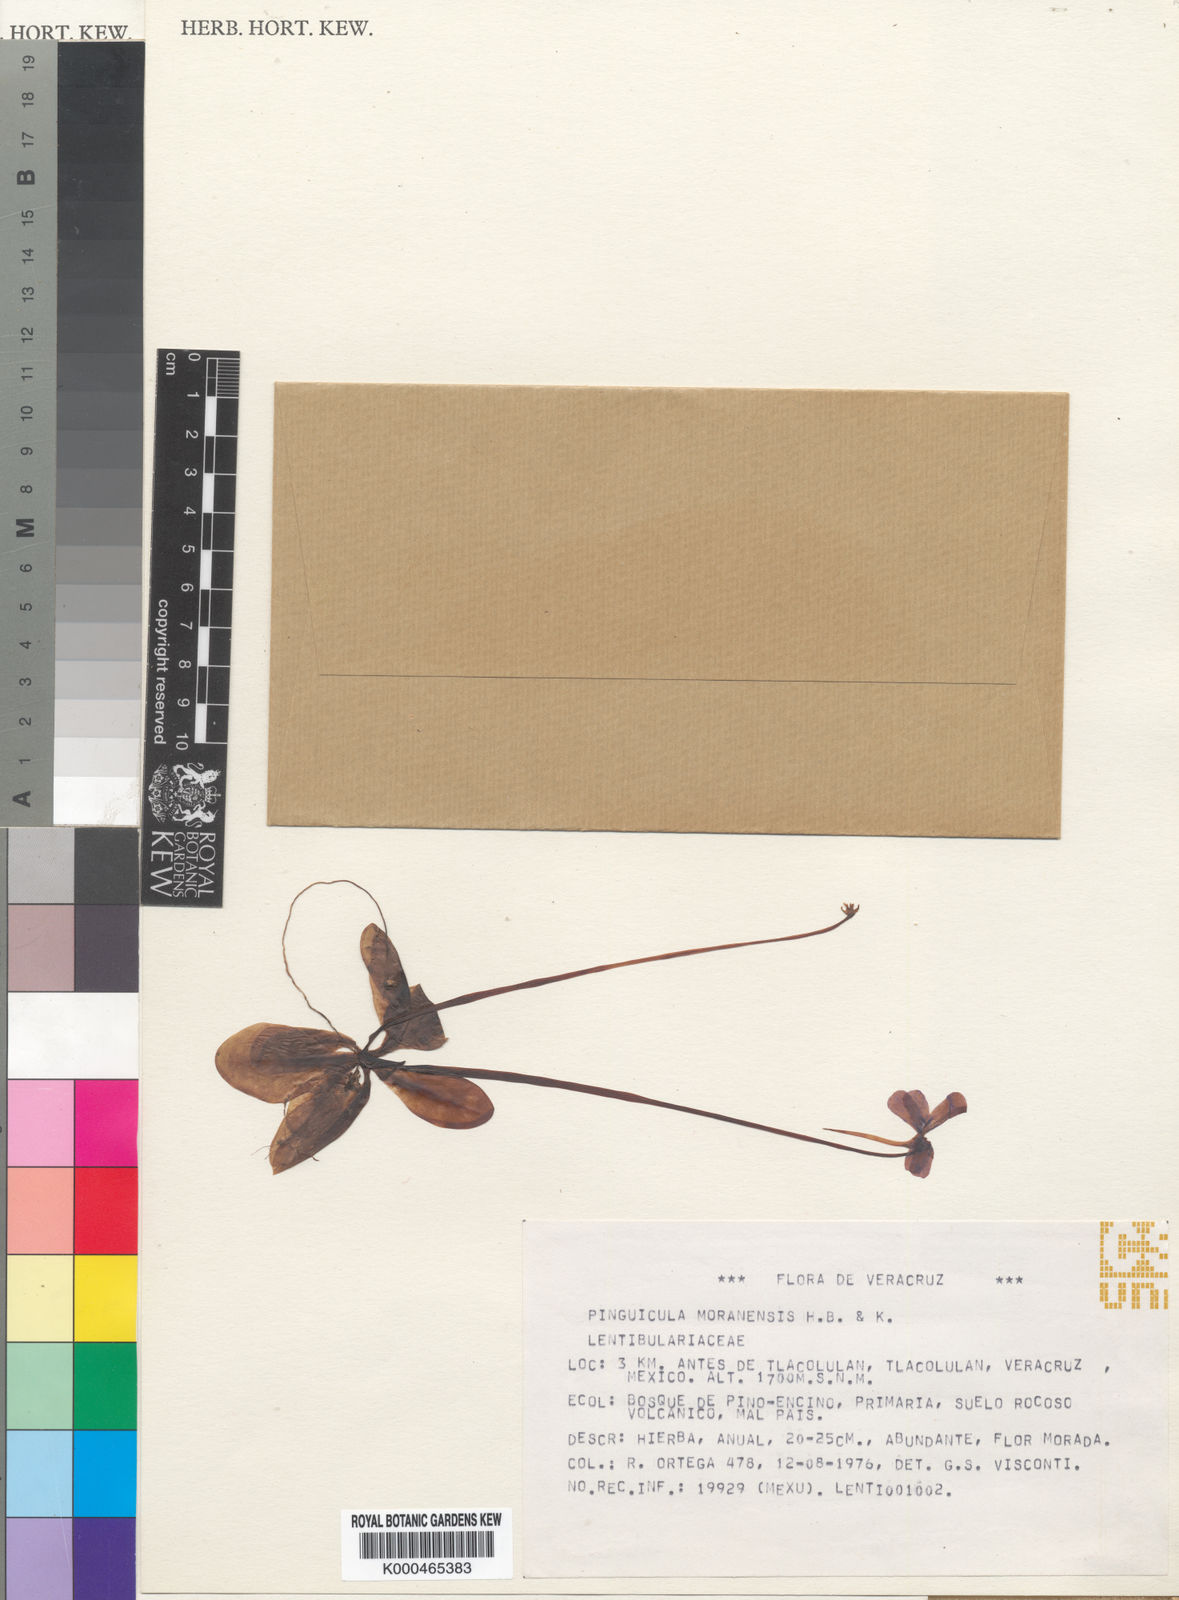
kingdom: Plantae
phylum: Tracheophyta
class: Magnoliopsida
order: Lamiales
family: Lentibulariaceae
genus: Pinguicula
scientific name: Pinguicula moranensis
